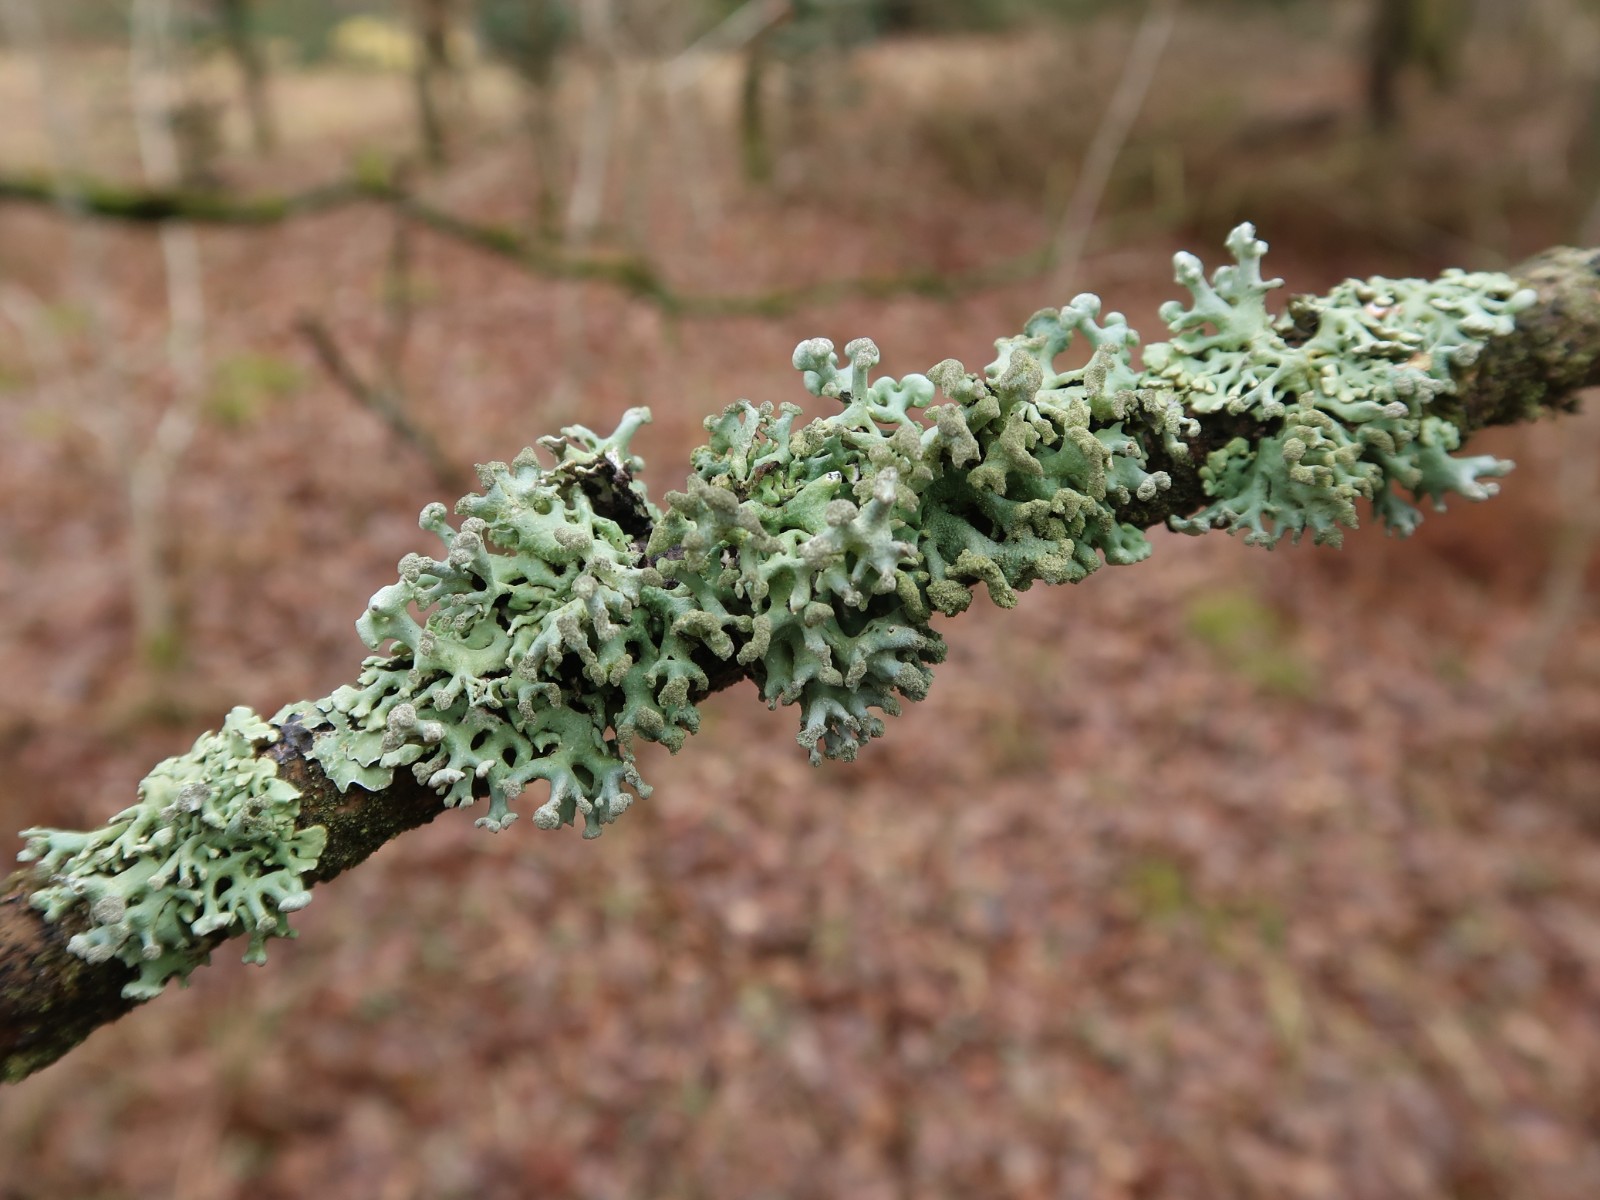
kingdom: Fungi
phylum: Ascomycota
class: Lecanoromycetes
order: Lecanorales
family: Parmeliaceae
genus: Hypogymnia
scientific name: Hypogymnia tubulosa
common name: finger-kvistlav
